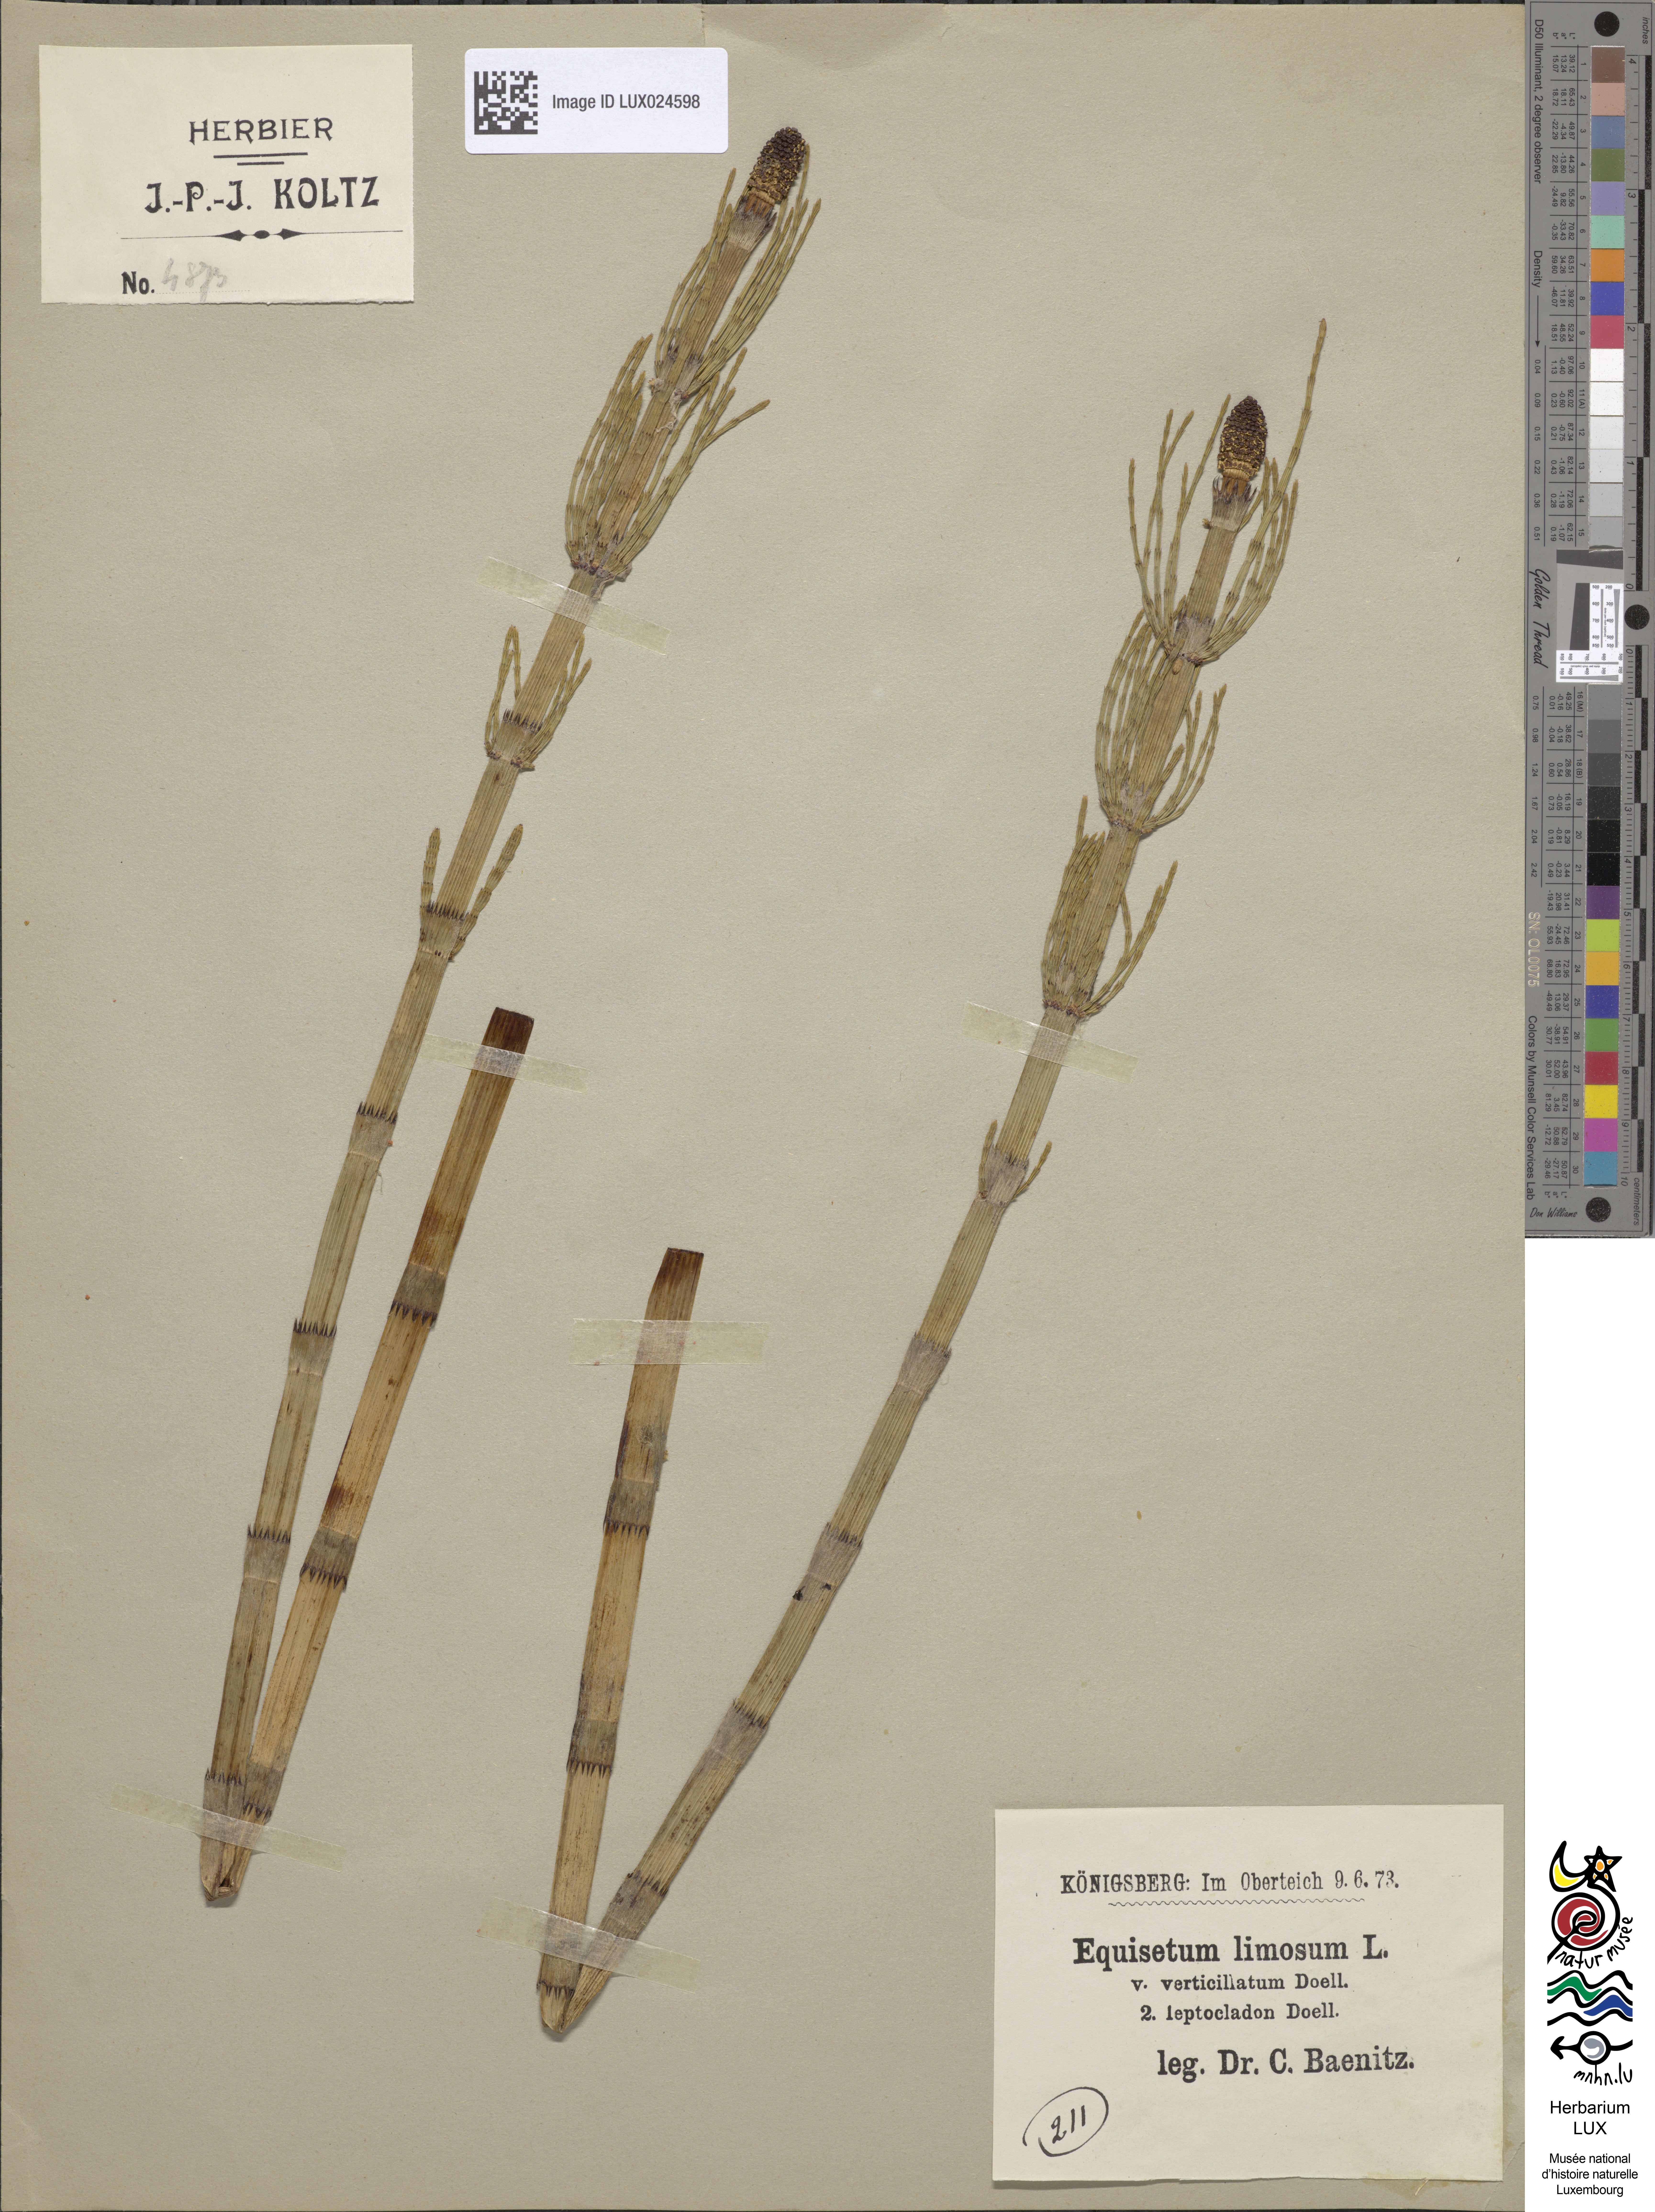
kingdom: Plantae
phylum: Tracheophyta
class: Polypodiopsida
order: Equisetales
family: Equisetaceae
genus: Equisetum
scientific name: Equisetum fluviatile
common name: Water horsetail
